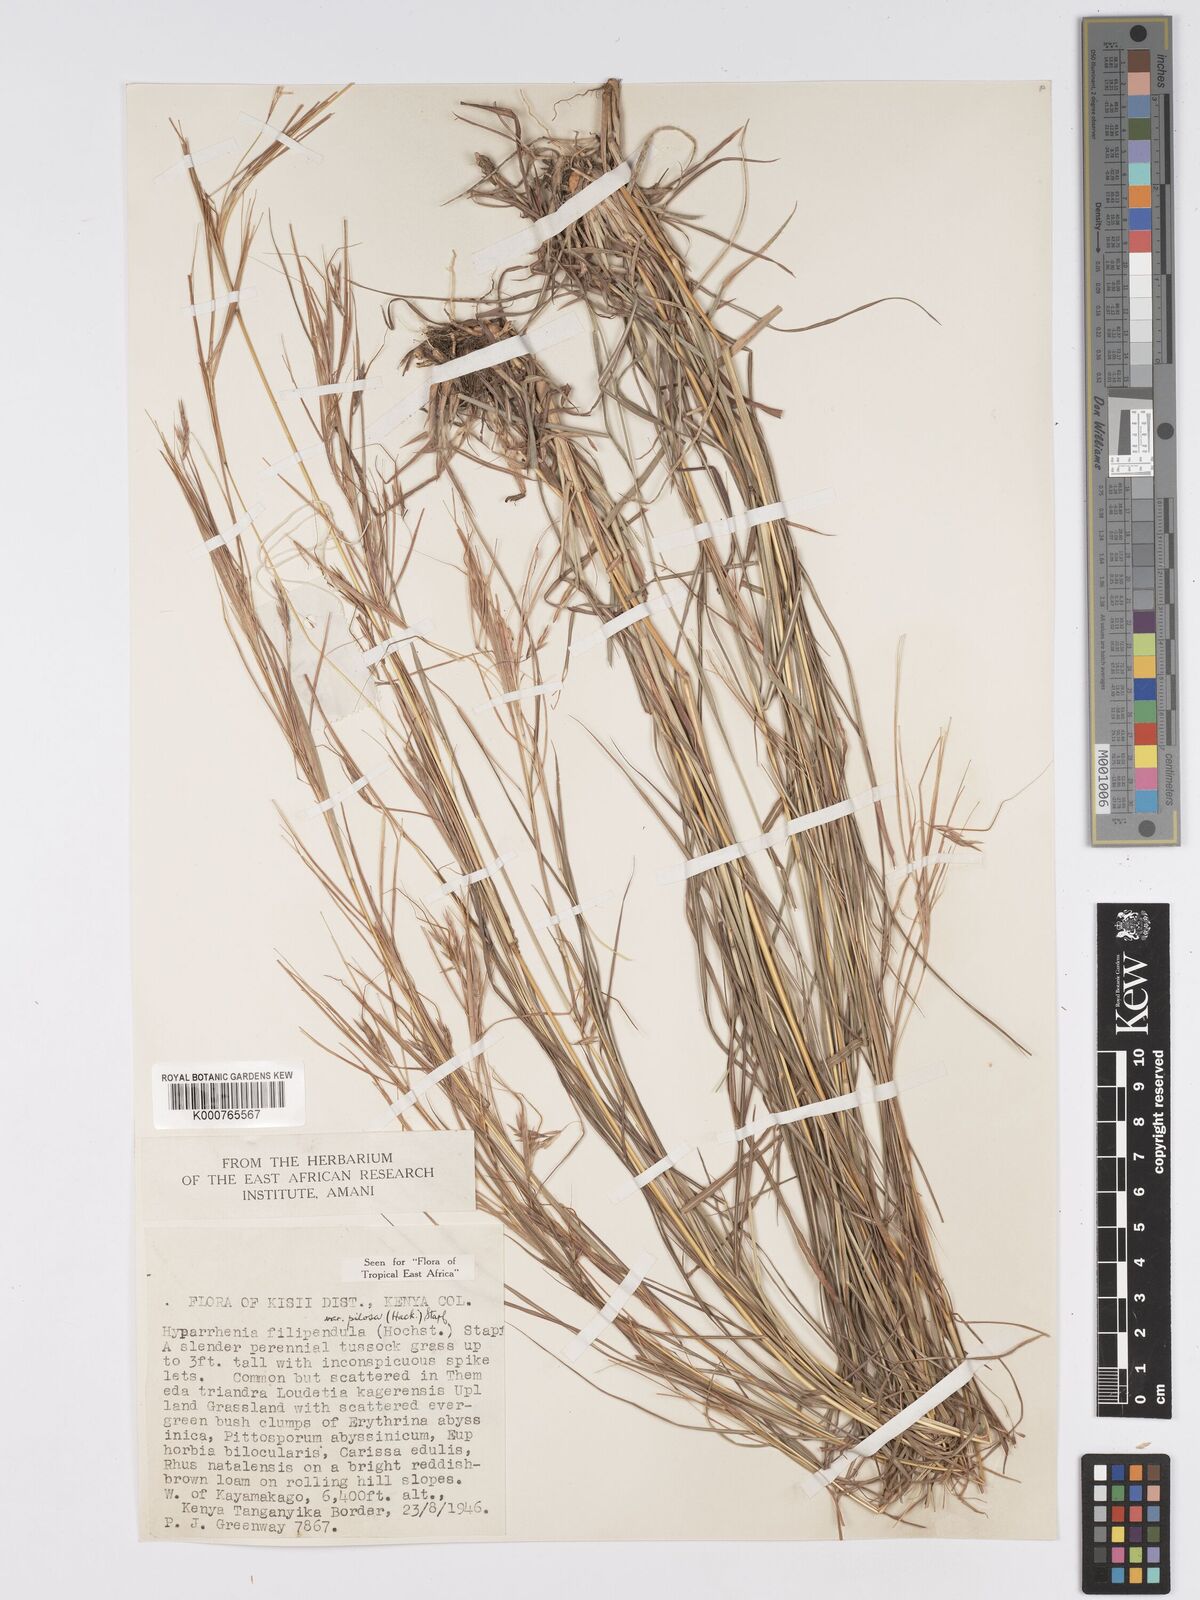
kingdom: Plantae
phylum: Tracheophyta
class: Liliopsida
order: Poales
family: Poaceae
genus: Hyparrhenia
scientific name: Hyparrhenia filipendula
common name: Tambookie grass
